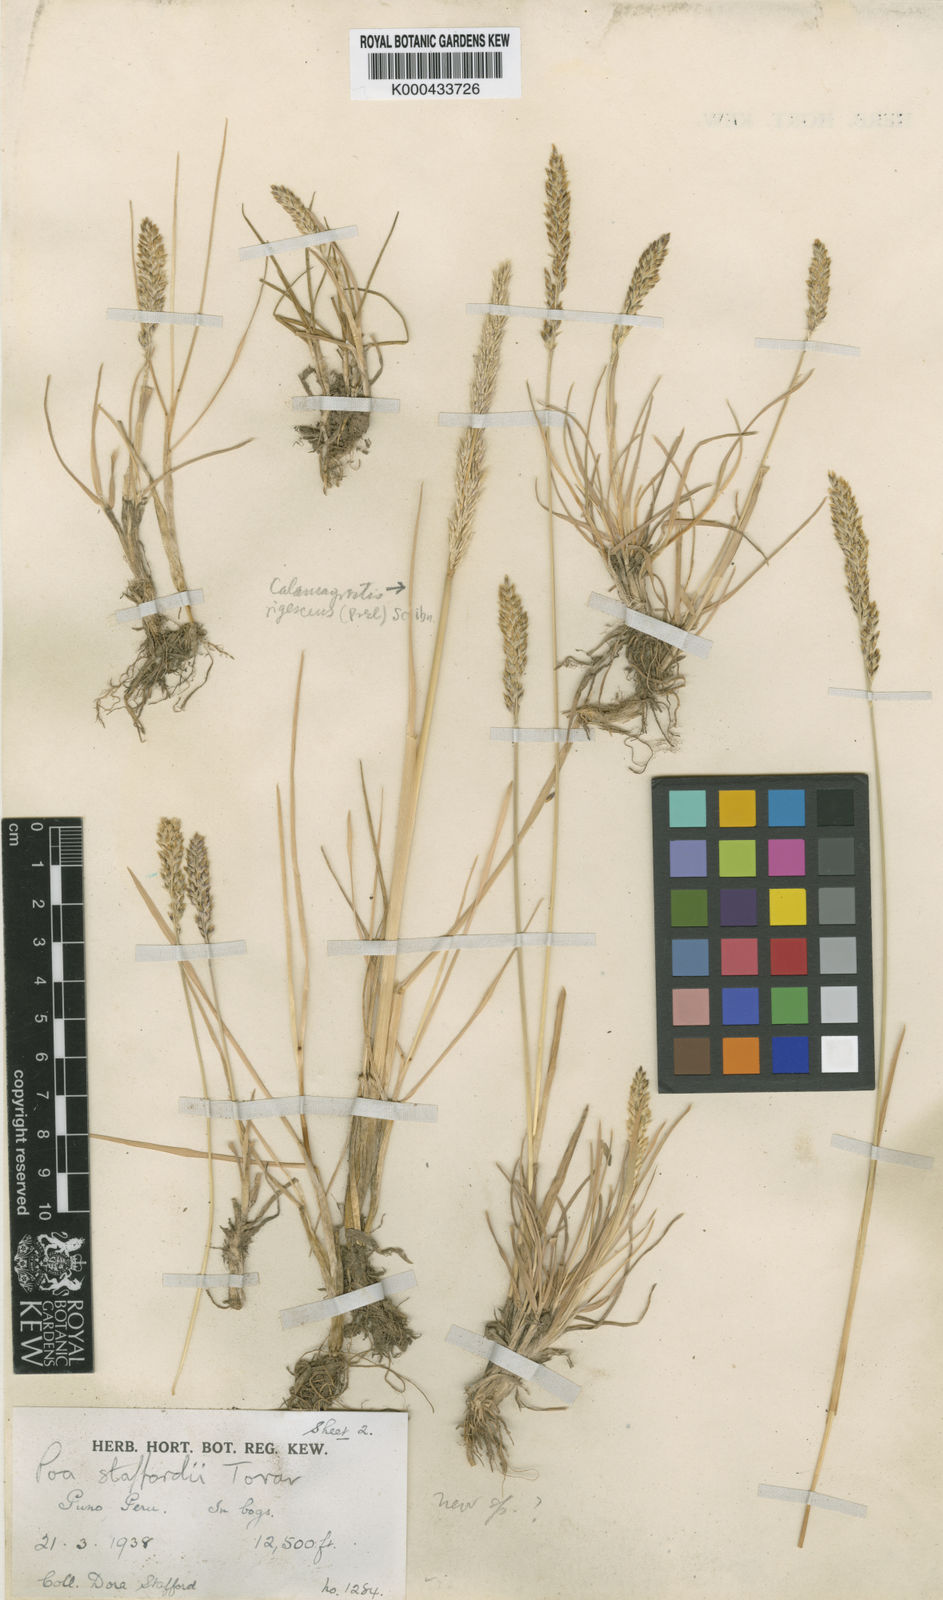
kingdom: Plantae
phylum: Tracheophyta
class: Liliopsida
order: Poales
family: Poaceae
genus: Poa
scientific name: Poa spicigera
